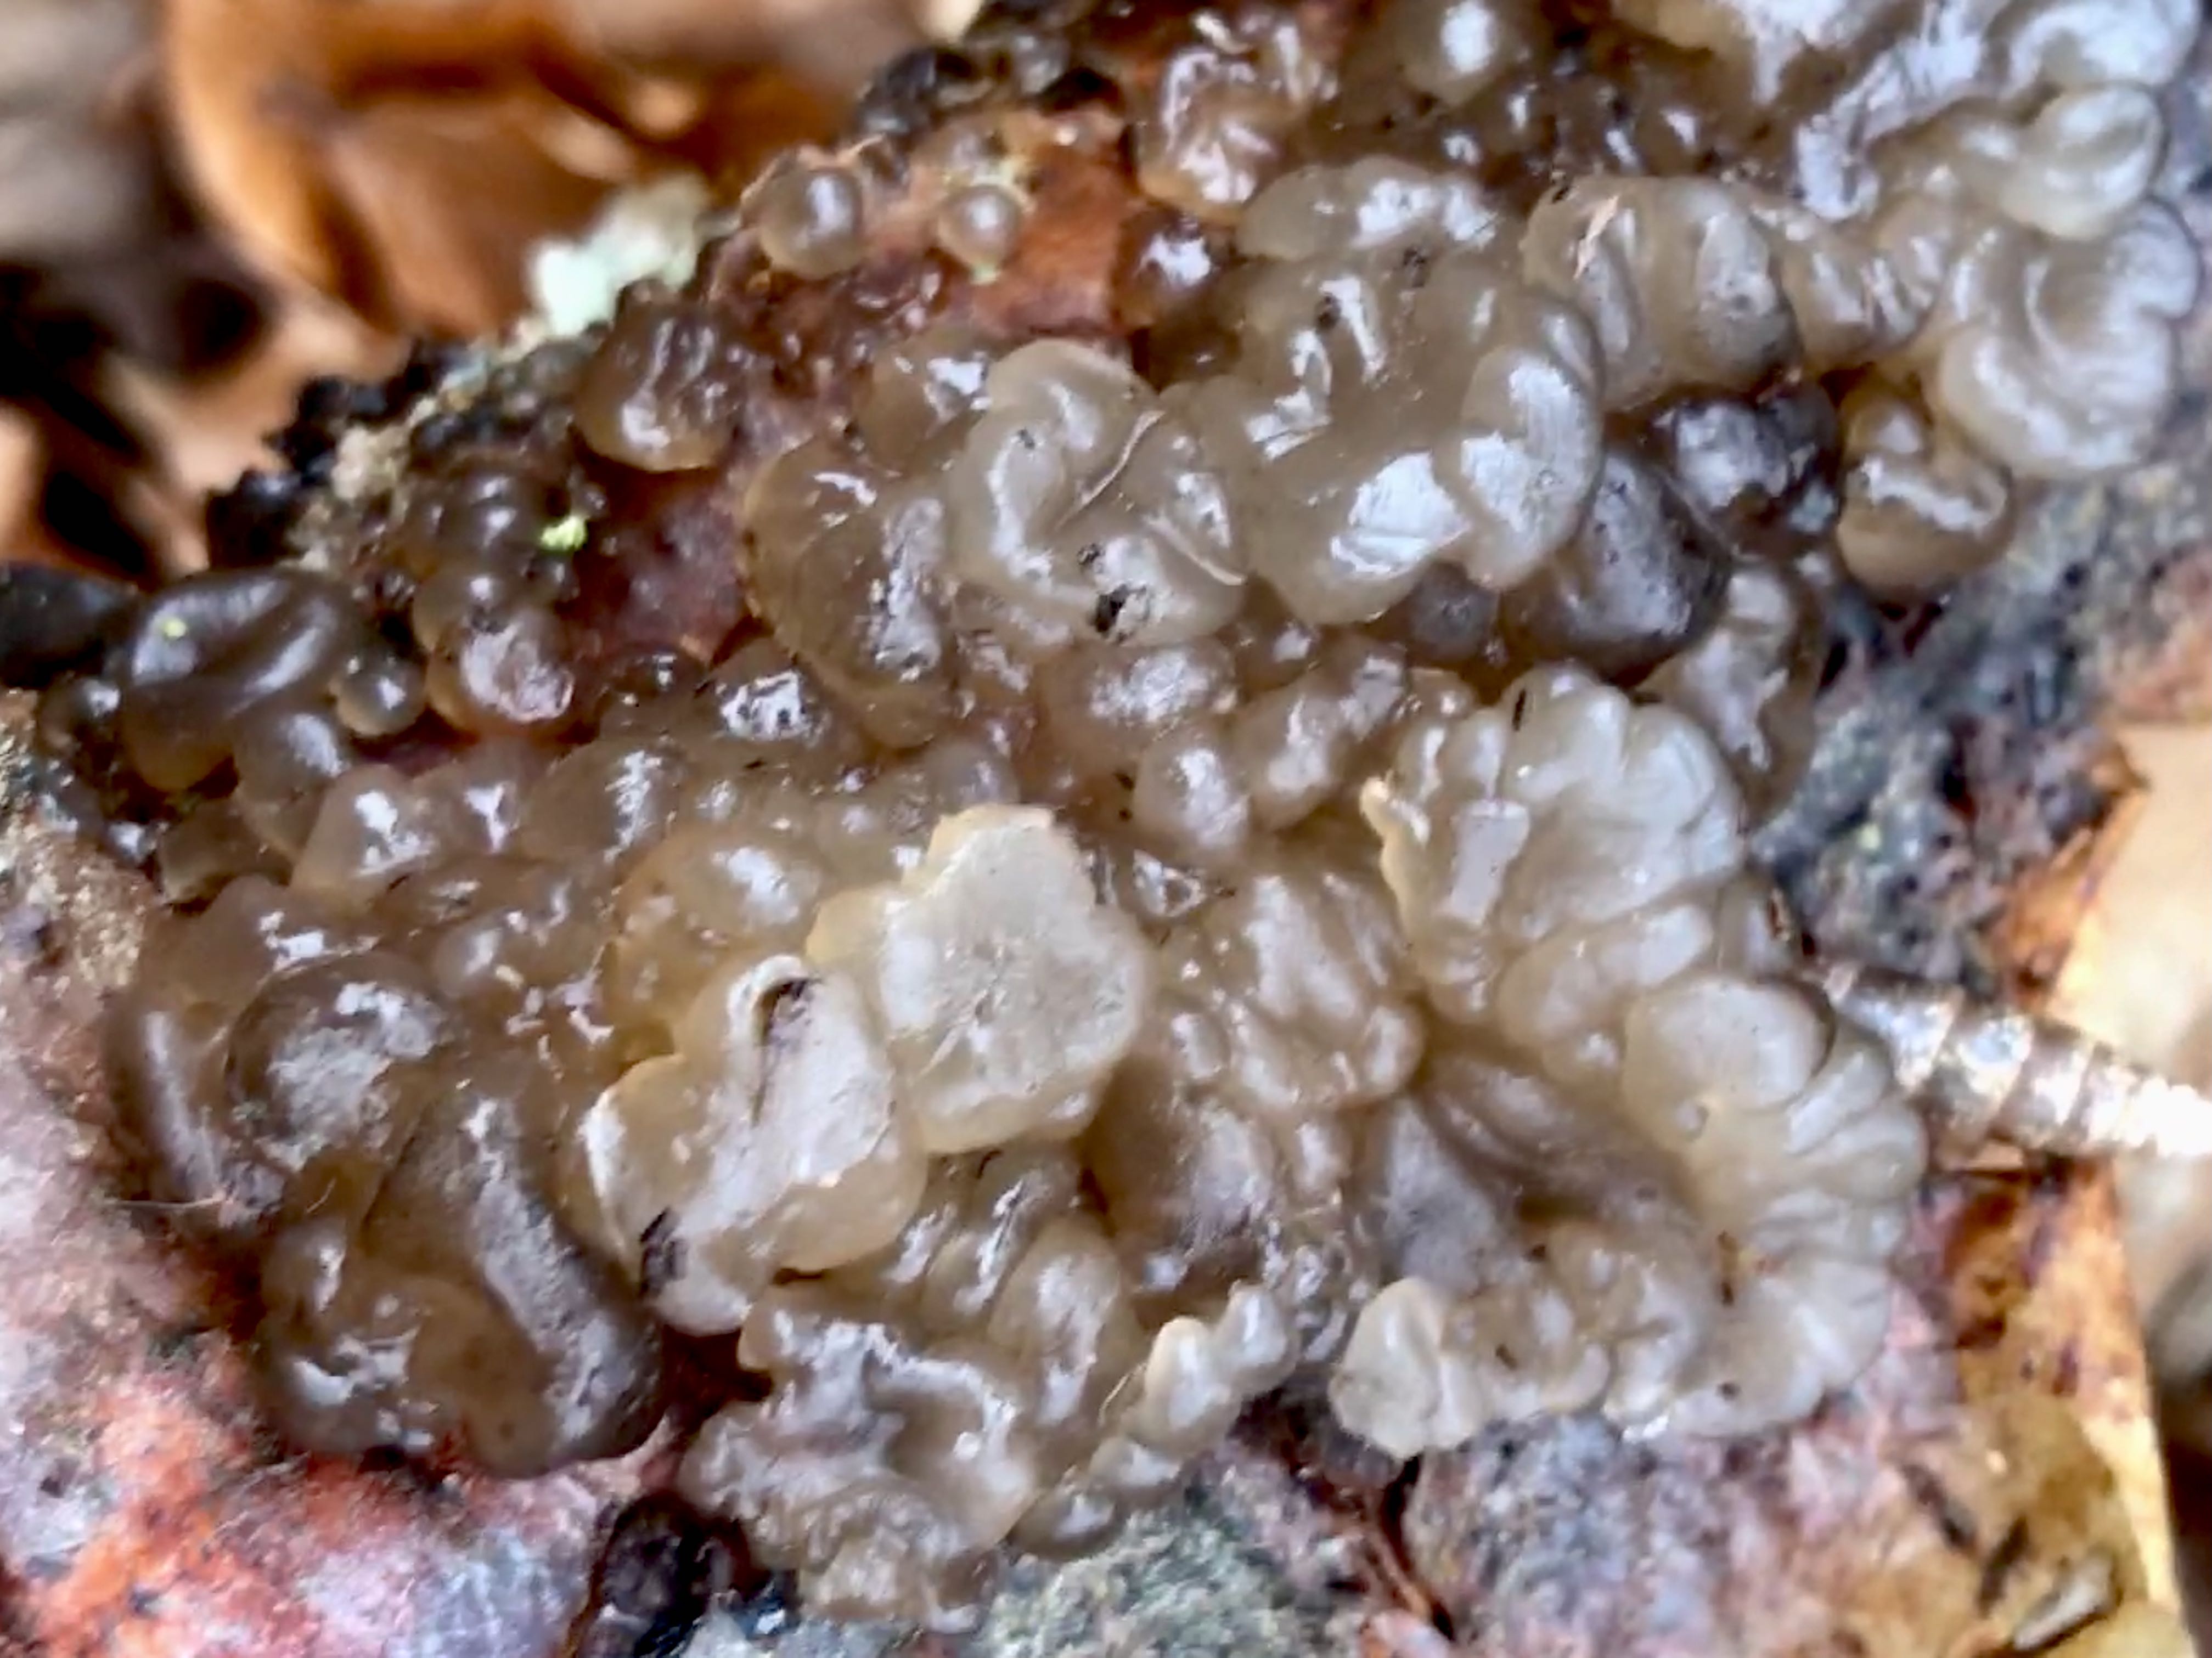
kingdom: Fungi
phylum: Basidiomycota
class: Agaricomycetes
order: Auriculariales
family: Auriculariaceae
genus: Exidia
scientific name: Exidia nigricans
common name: almindelig bævretop
